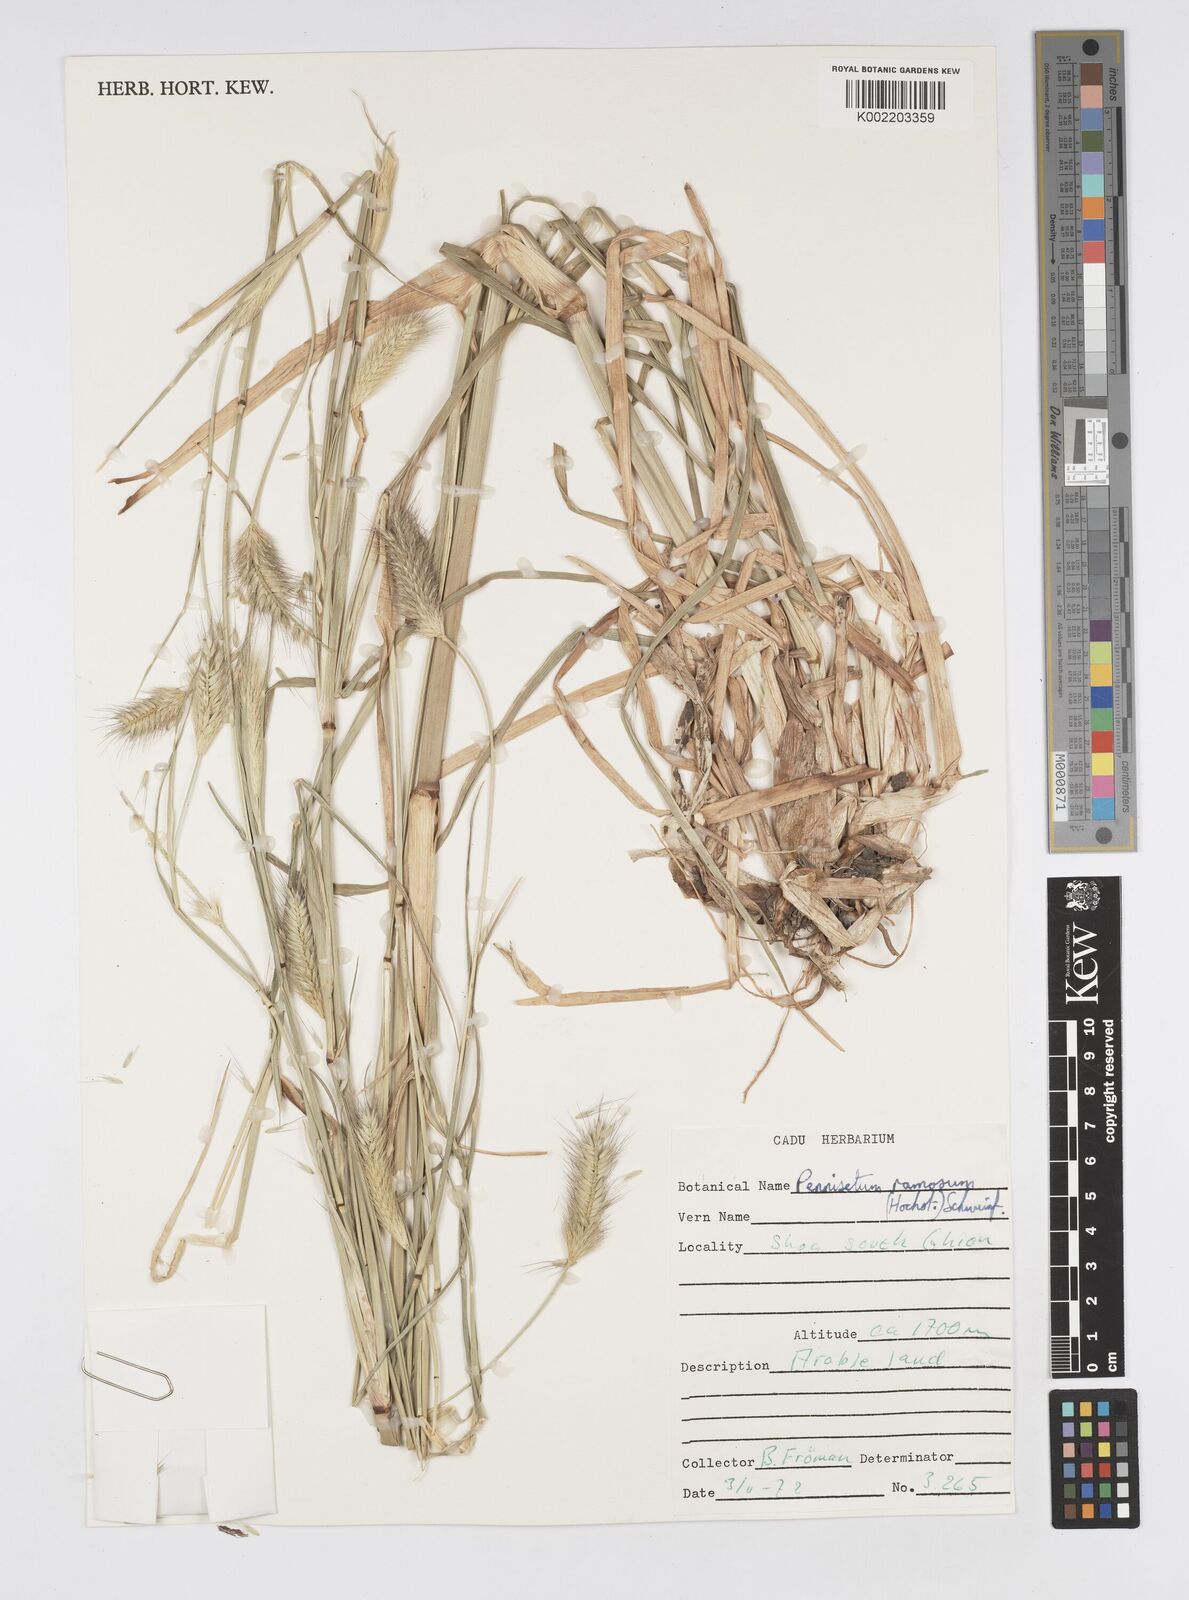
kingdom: Plantae
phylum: Tracheophyta
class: Liliopsida
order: Poales
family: Poaceae
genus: Cenchrus
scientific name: Cenchrus ramosus
